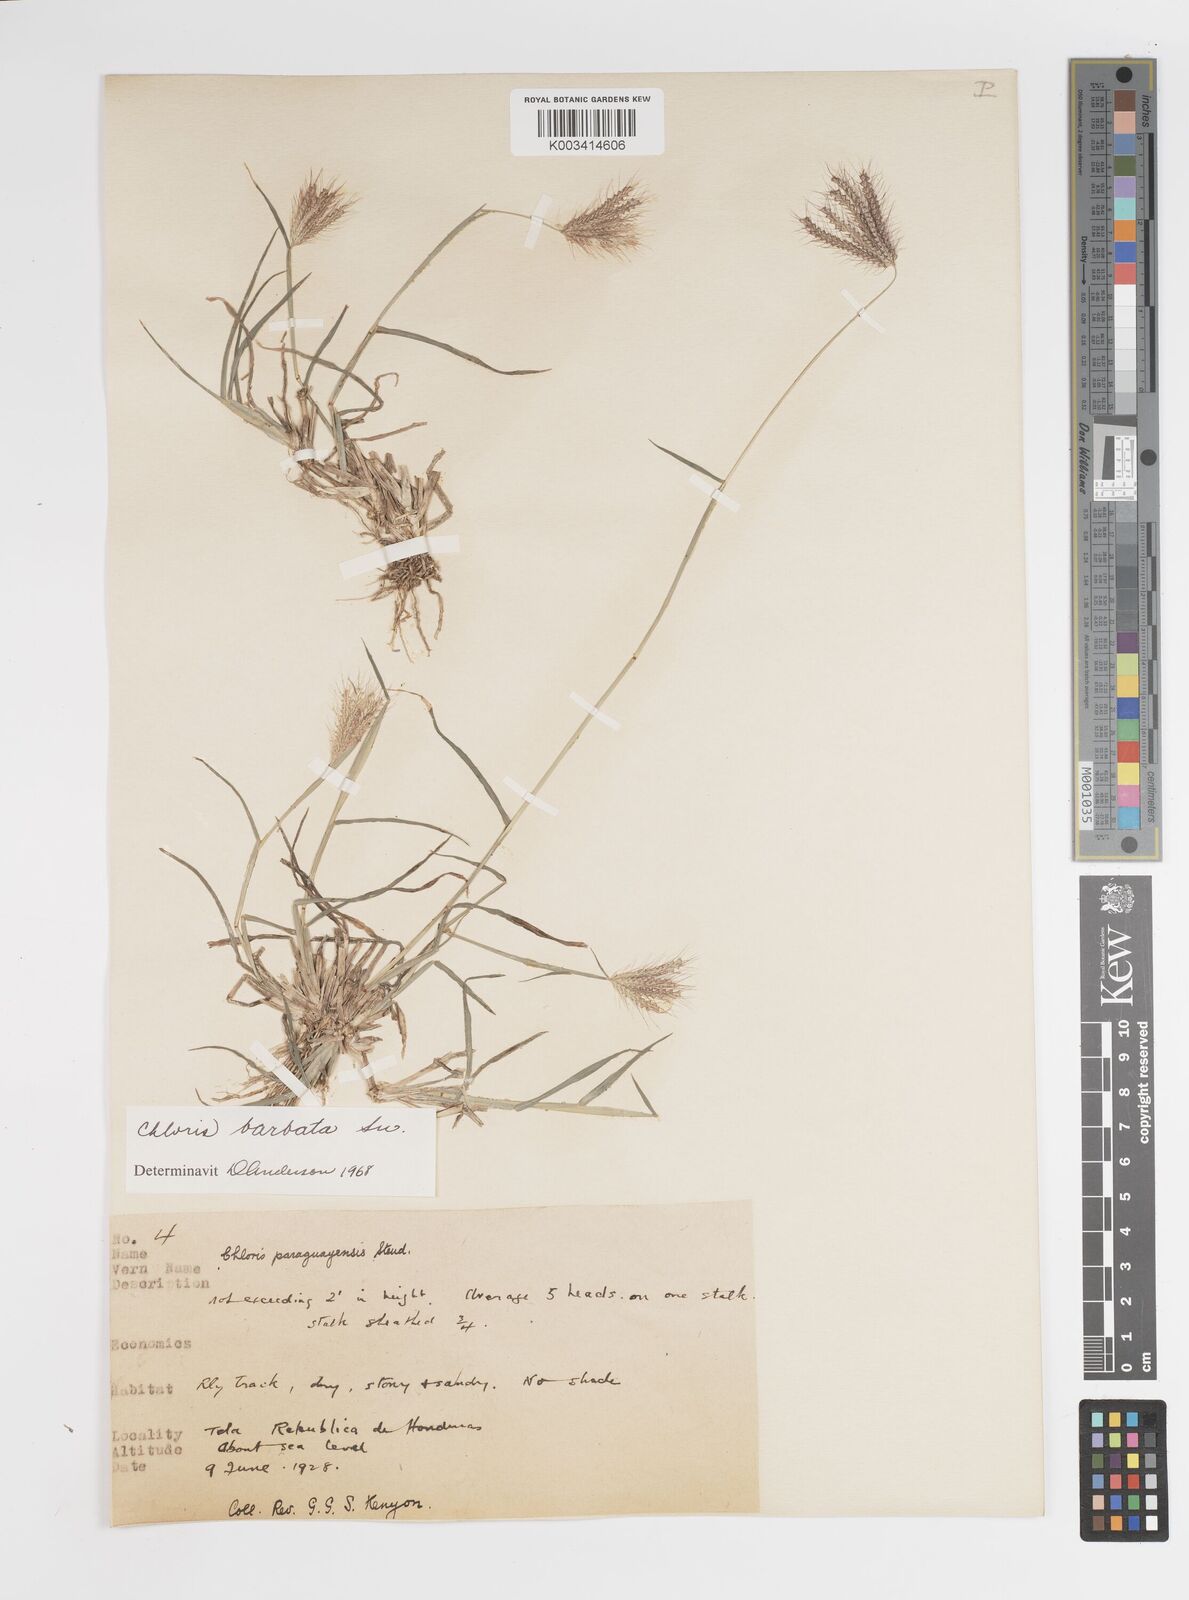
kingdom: Plantae
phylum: Tracheophyta
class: Liliopsida
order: Poales
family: Poaceae
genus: Stapfochloa
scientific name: Stapfochloa elata
